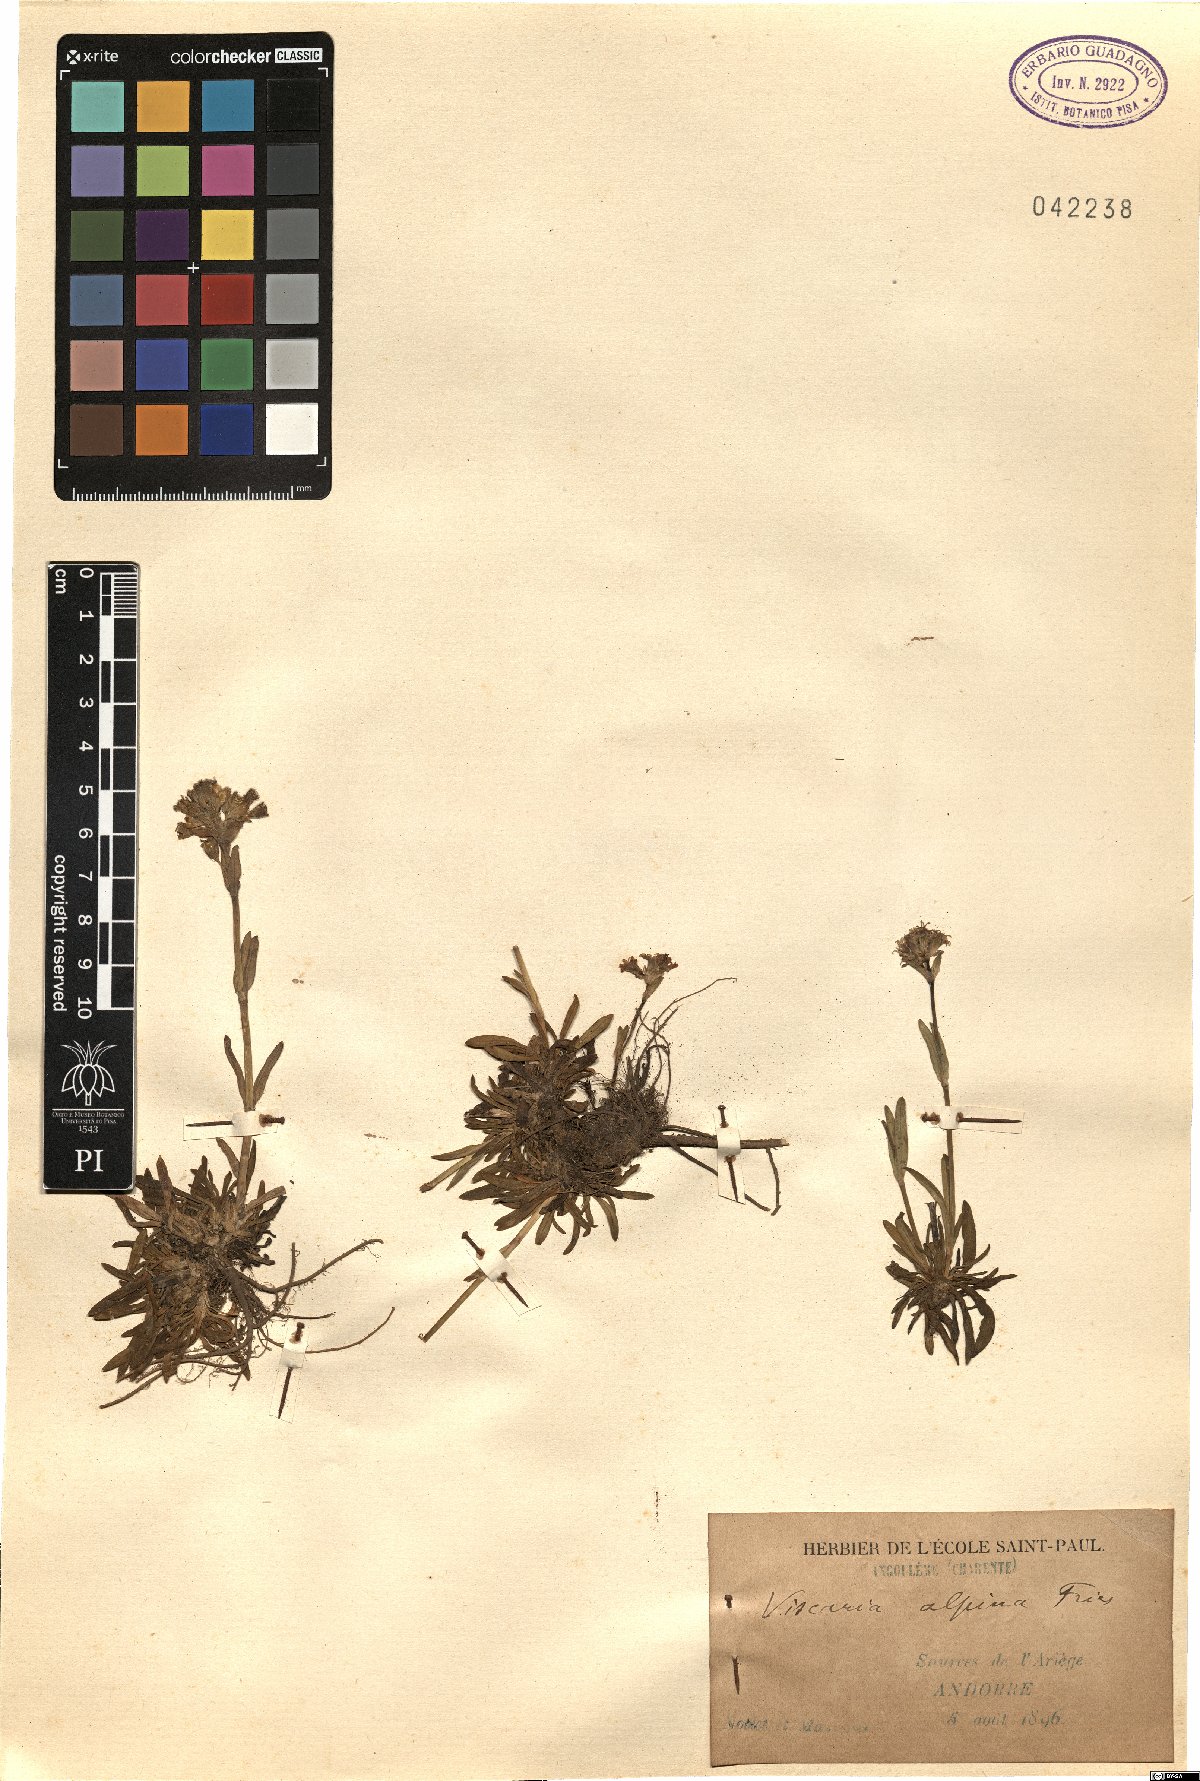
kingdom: Plantae
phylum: Tracheophyta
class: Magnoliopsida
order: Caryophyllales
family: Caryophyllaceae
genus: Viscaria
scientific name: Viscaria alpina
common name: Alpine campion
